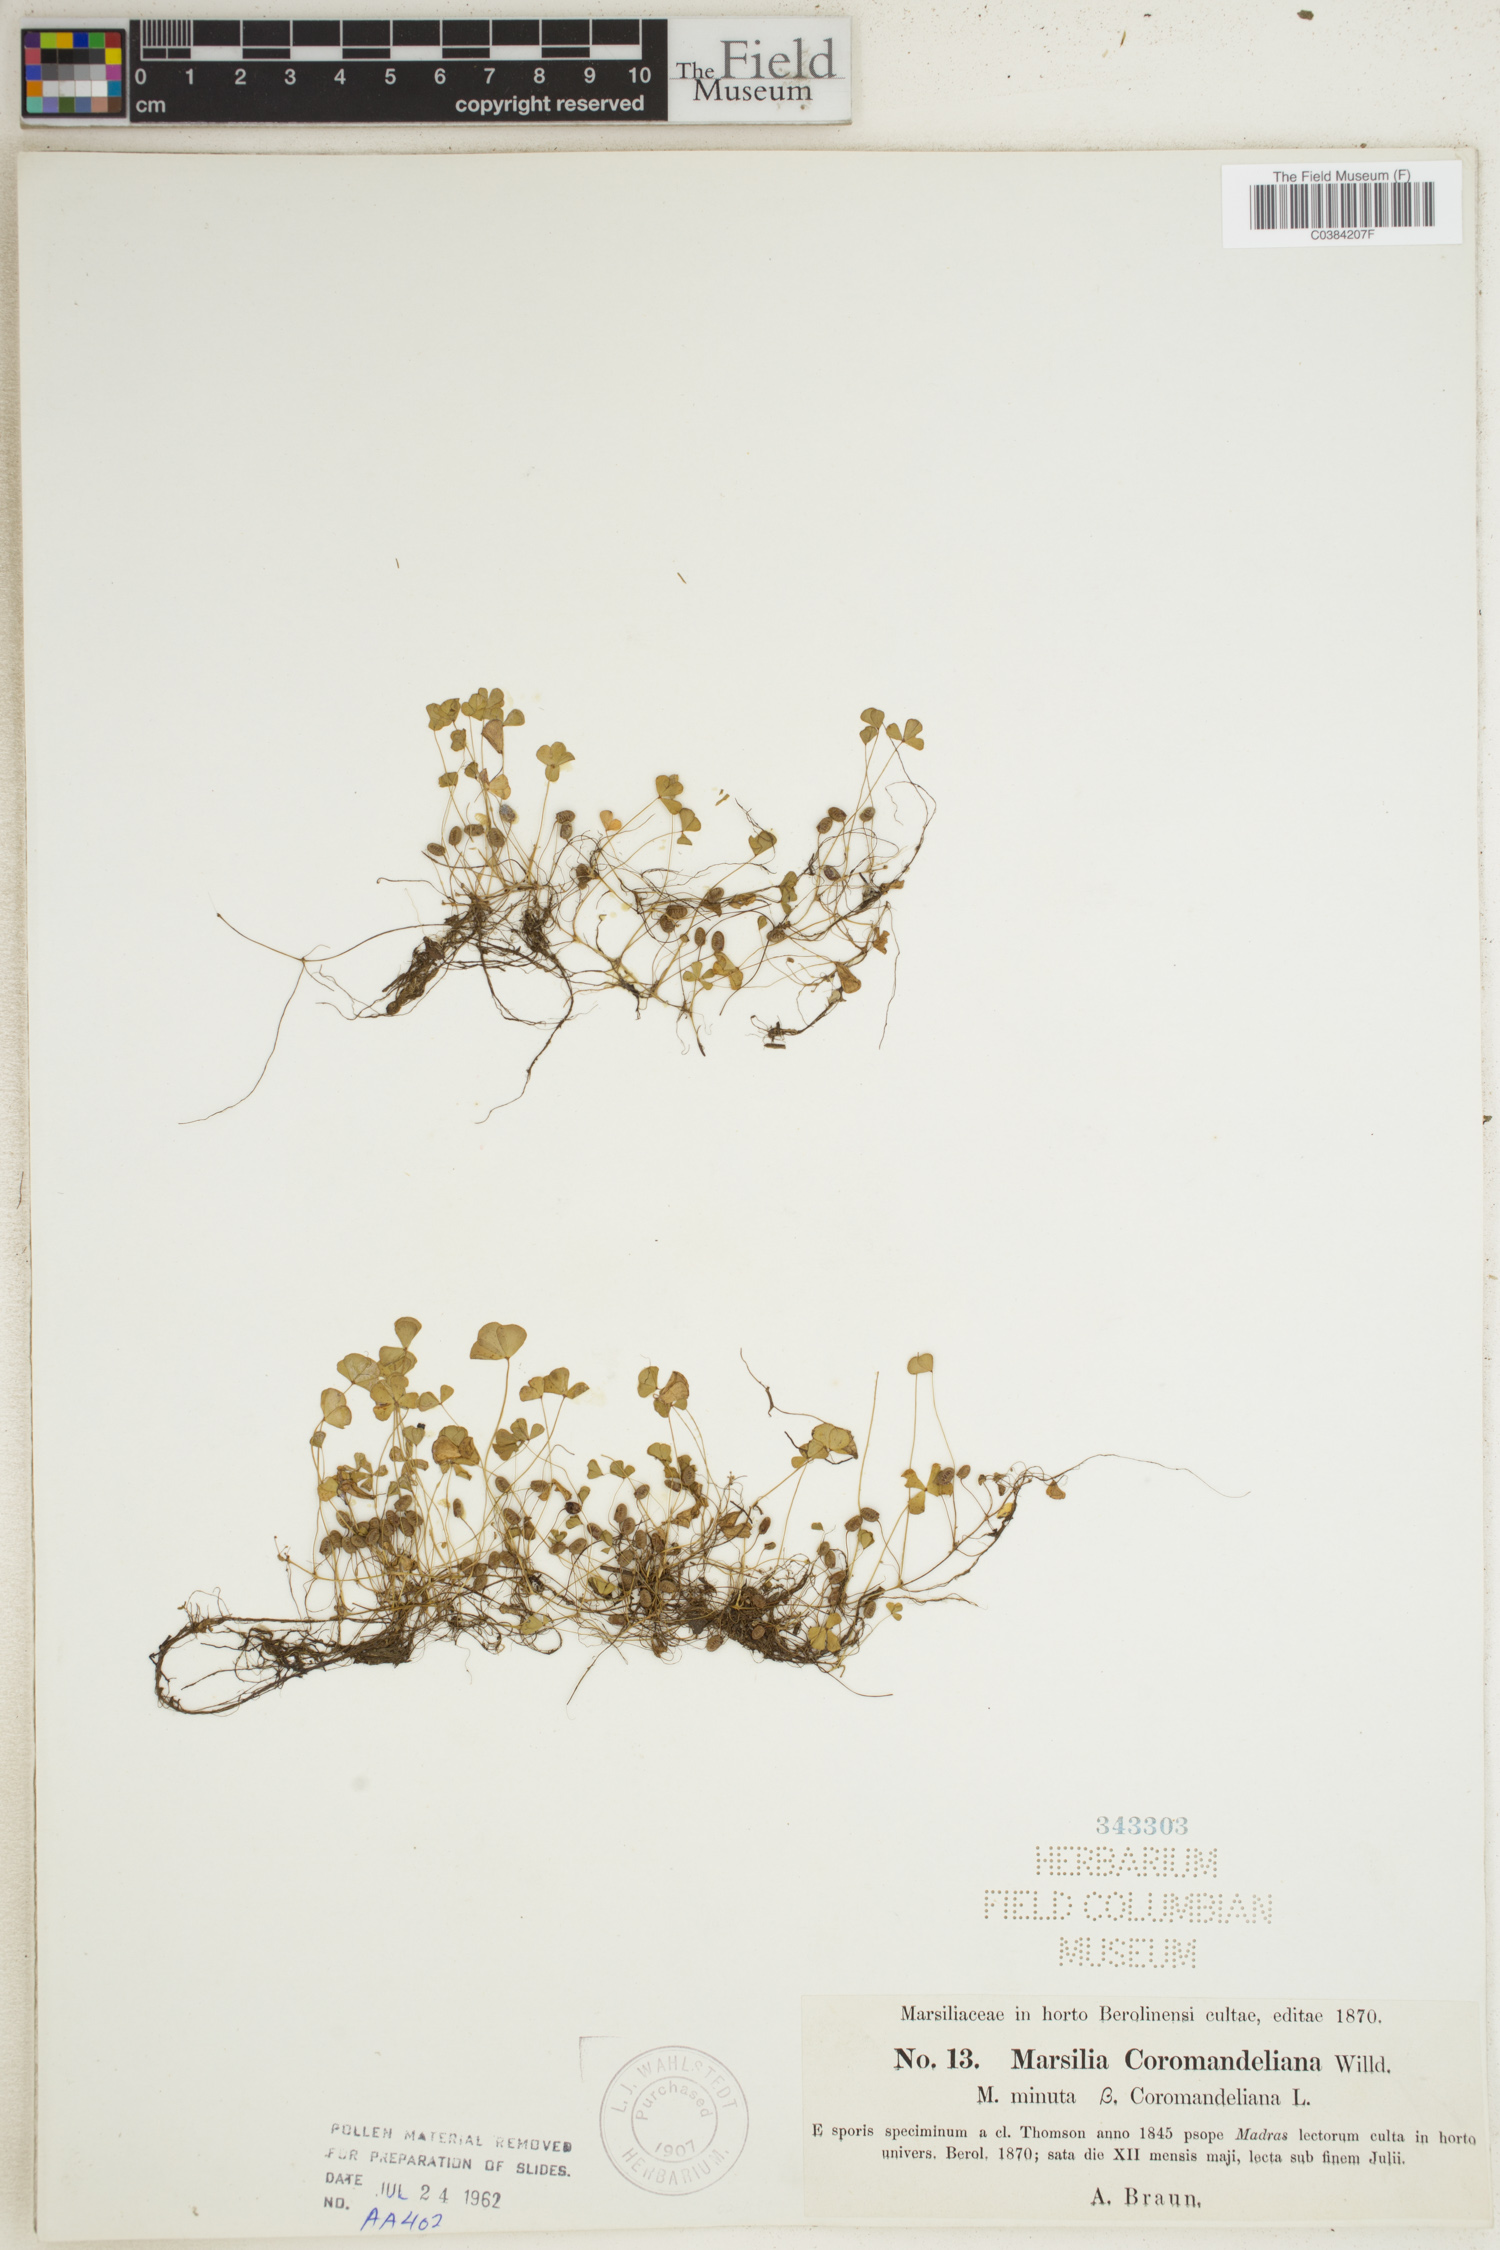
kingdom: Plantae
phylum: Tracheophyta
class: Polypodiopsida
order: Salviniales
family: Marsileaceae
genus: Marsilea
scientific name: Marsilea coromandelina
